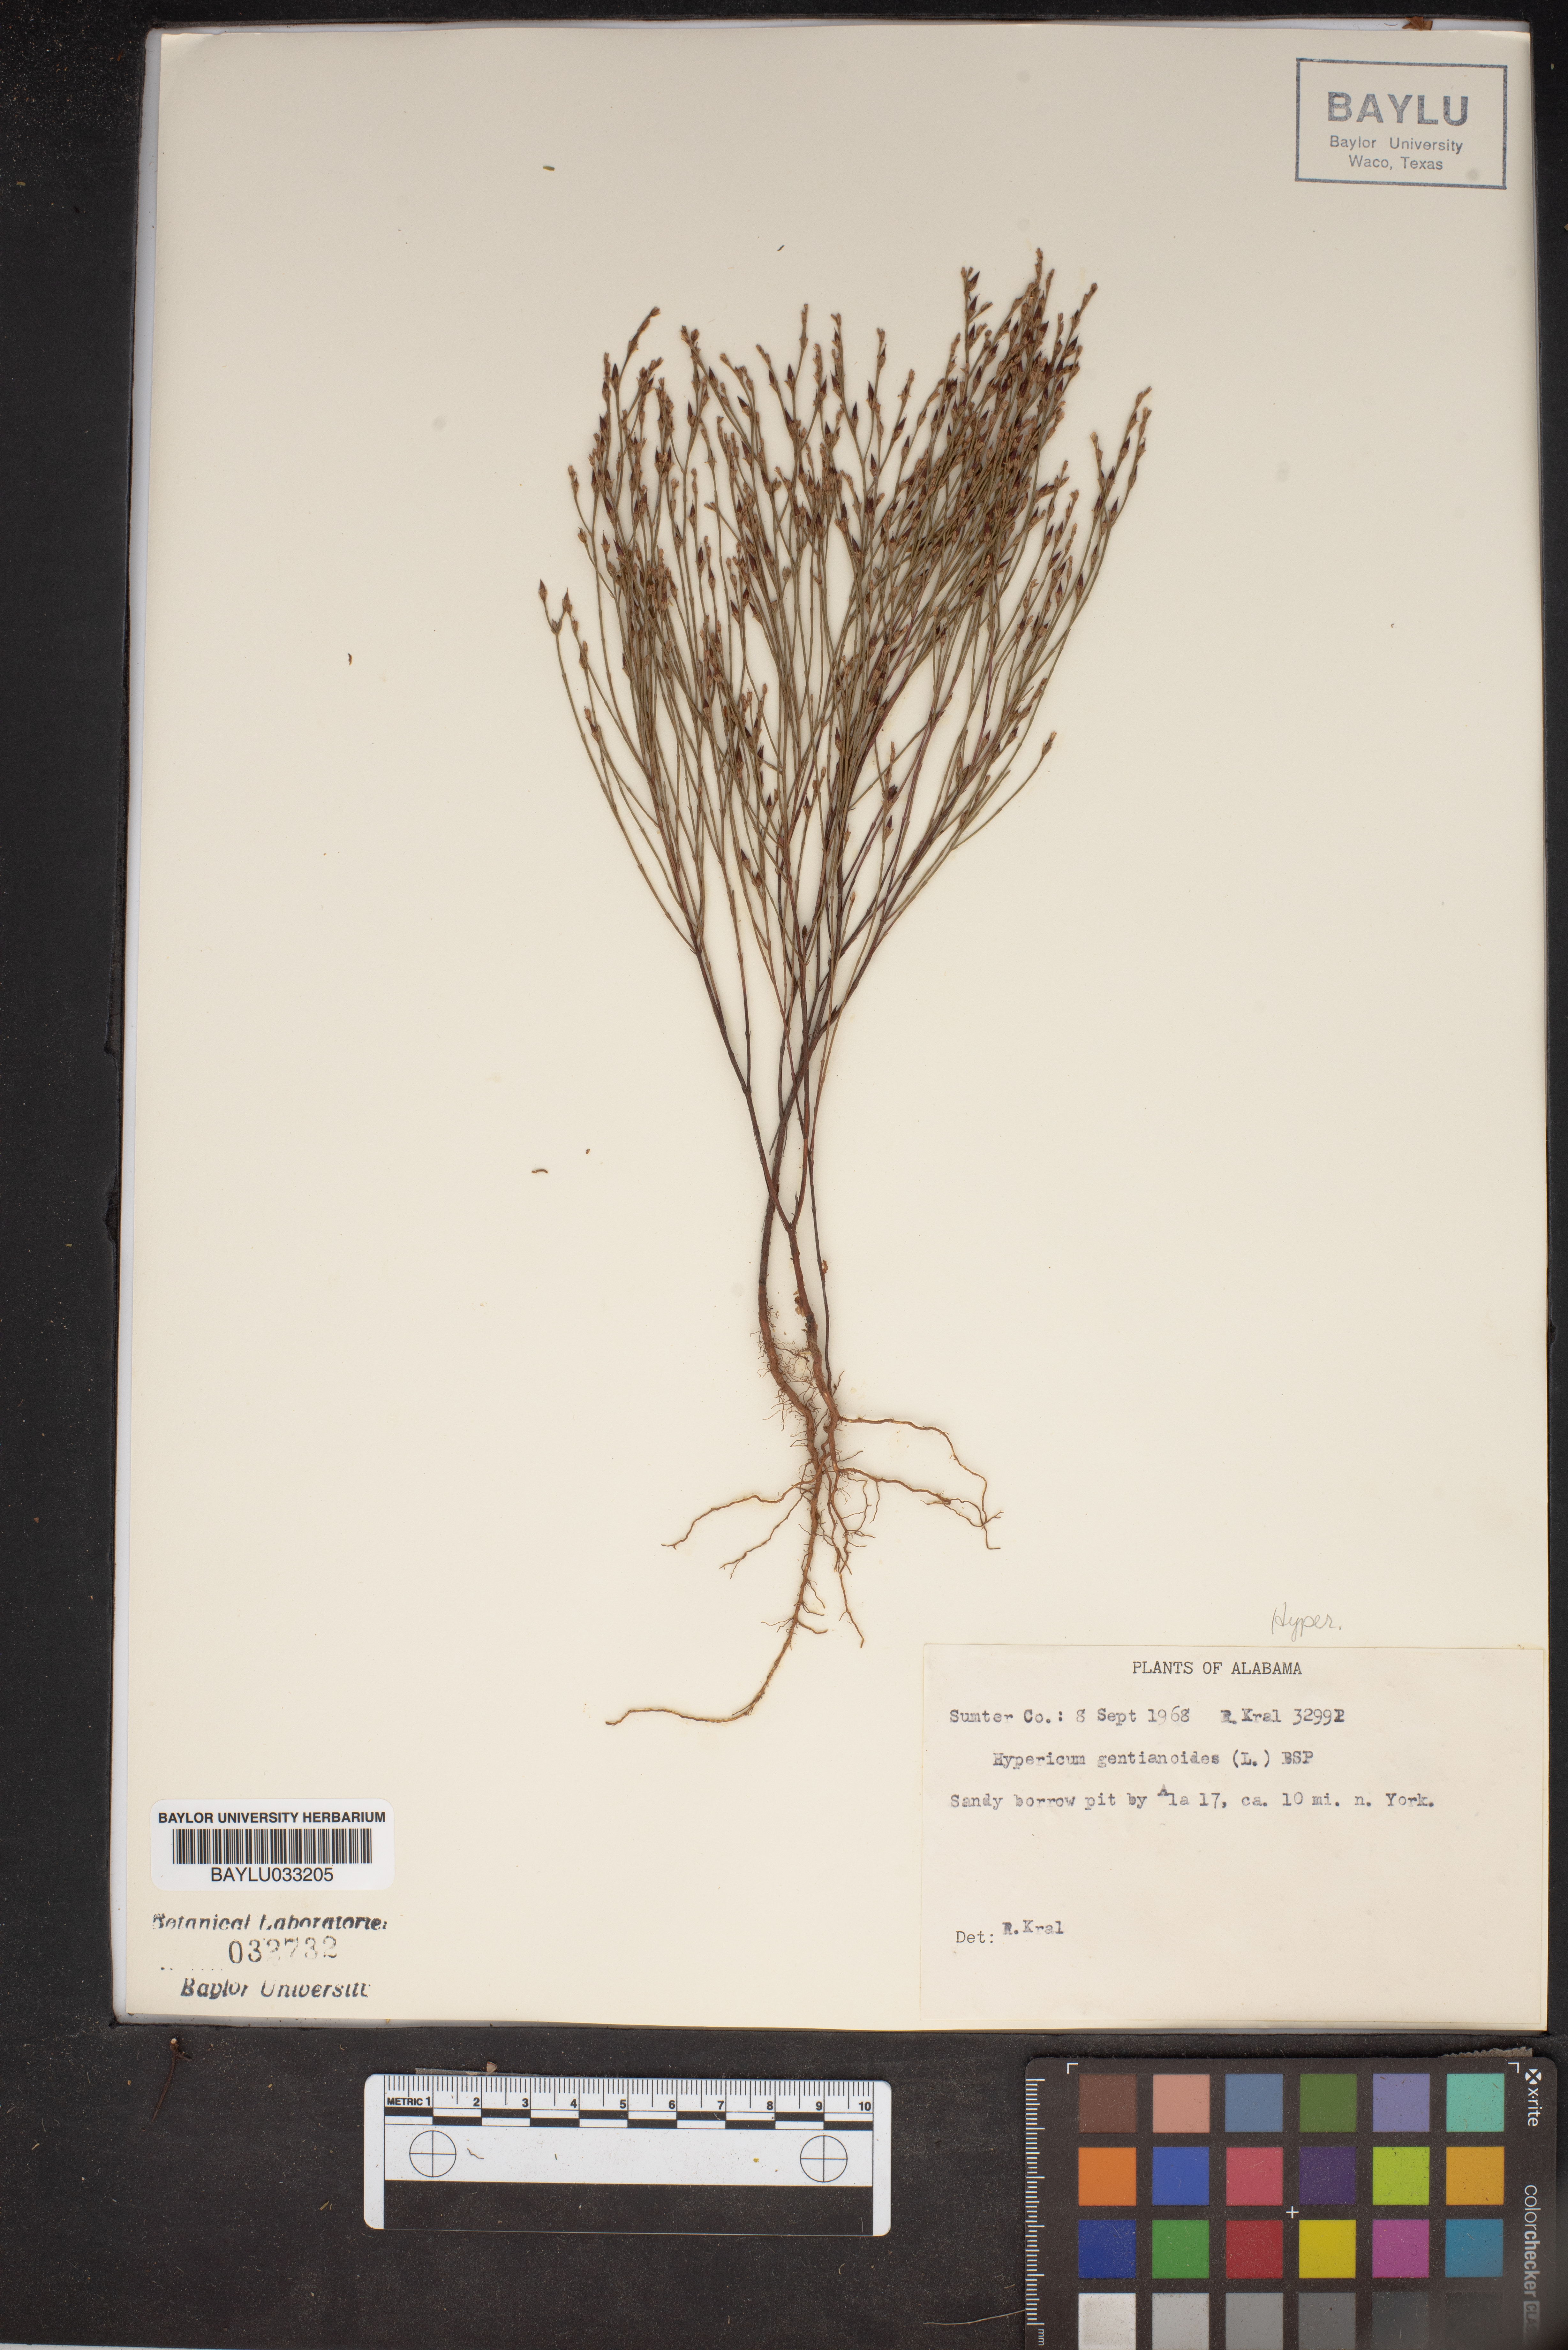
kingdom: Plantae
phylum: Tracheophyta
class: Magnoliopsida
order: Malpighiales
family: Hypericaceae
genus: Hypericum
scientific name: Hypericum gentianoides
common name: Gentian-leaved st. john's-wort
